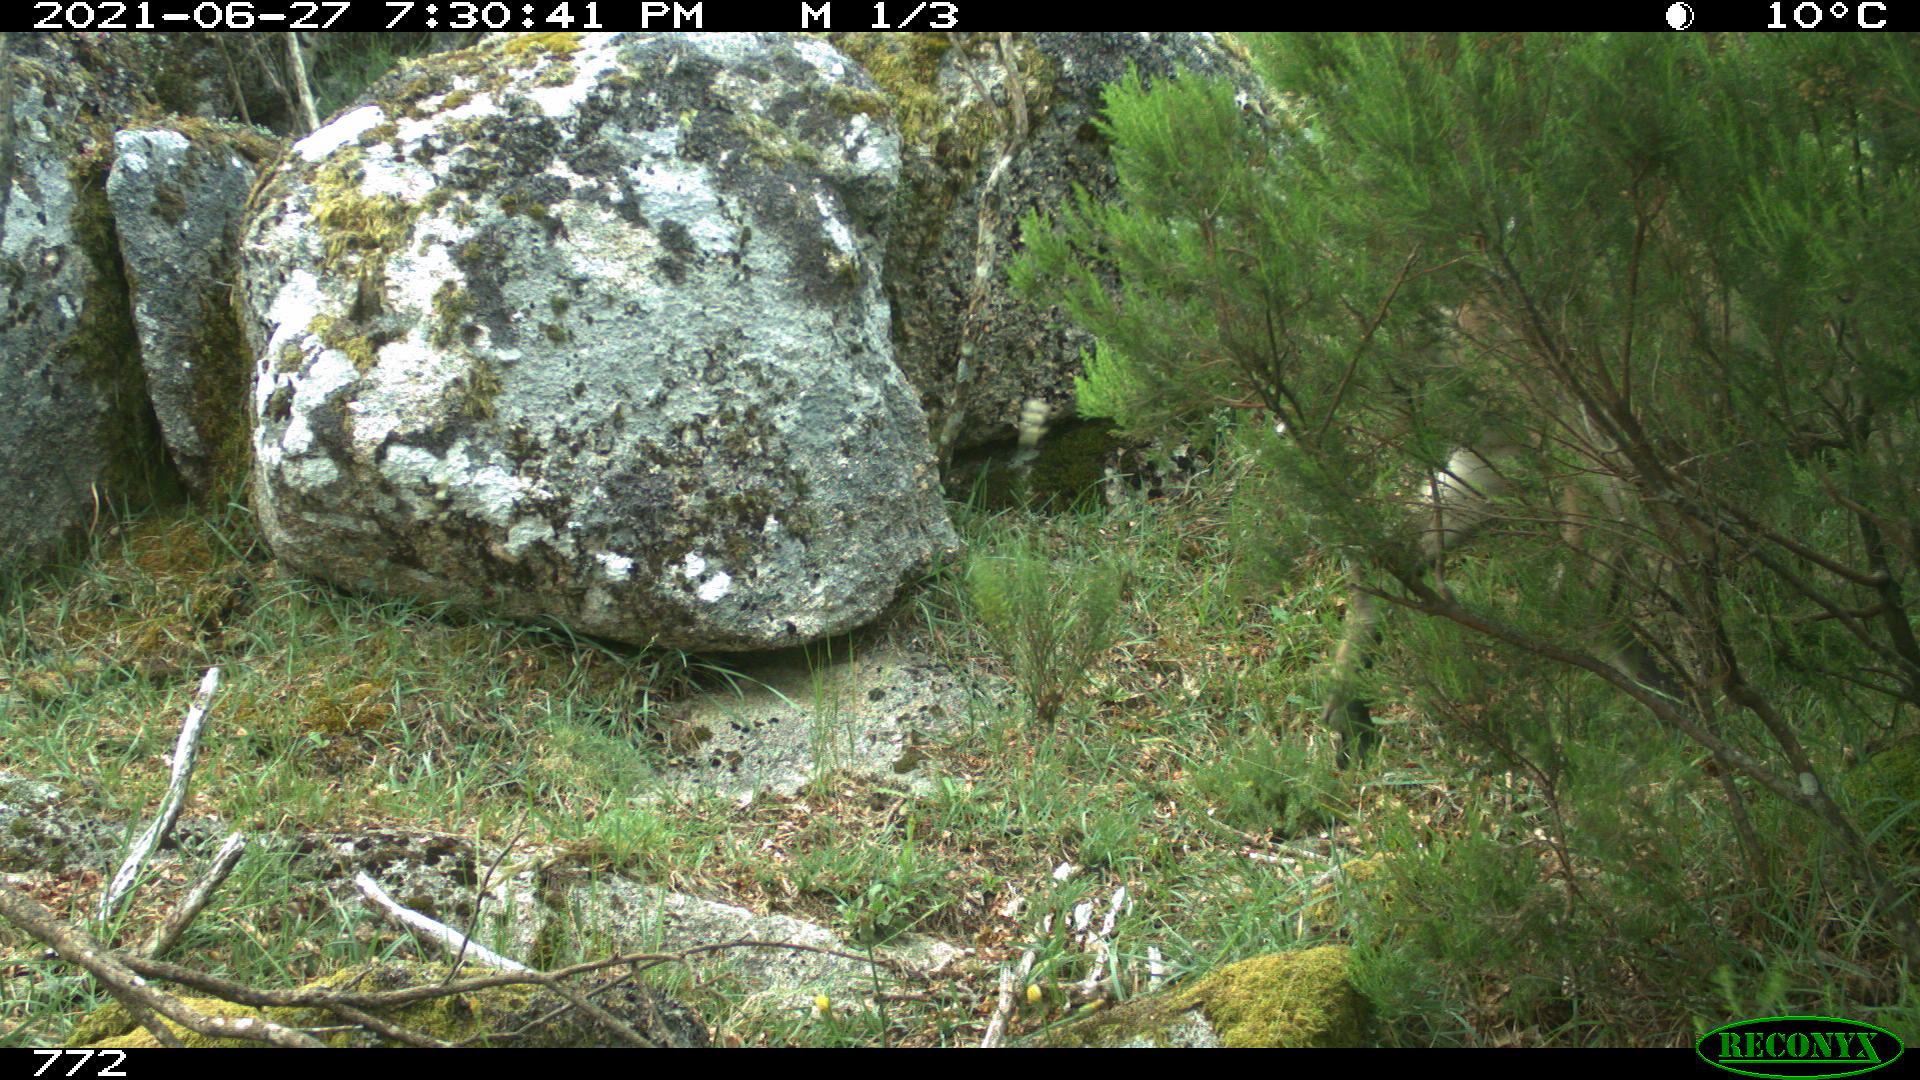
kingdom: Animalia
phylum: Chordata
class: Mammalia
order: Artiodactyla
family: Cervidae
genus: Capreolus
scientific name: Capreolus capreolus
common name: Western roe deer
